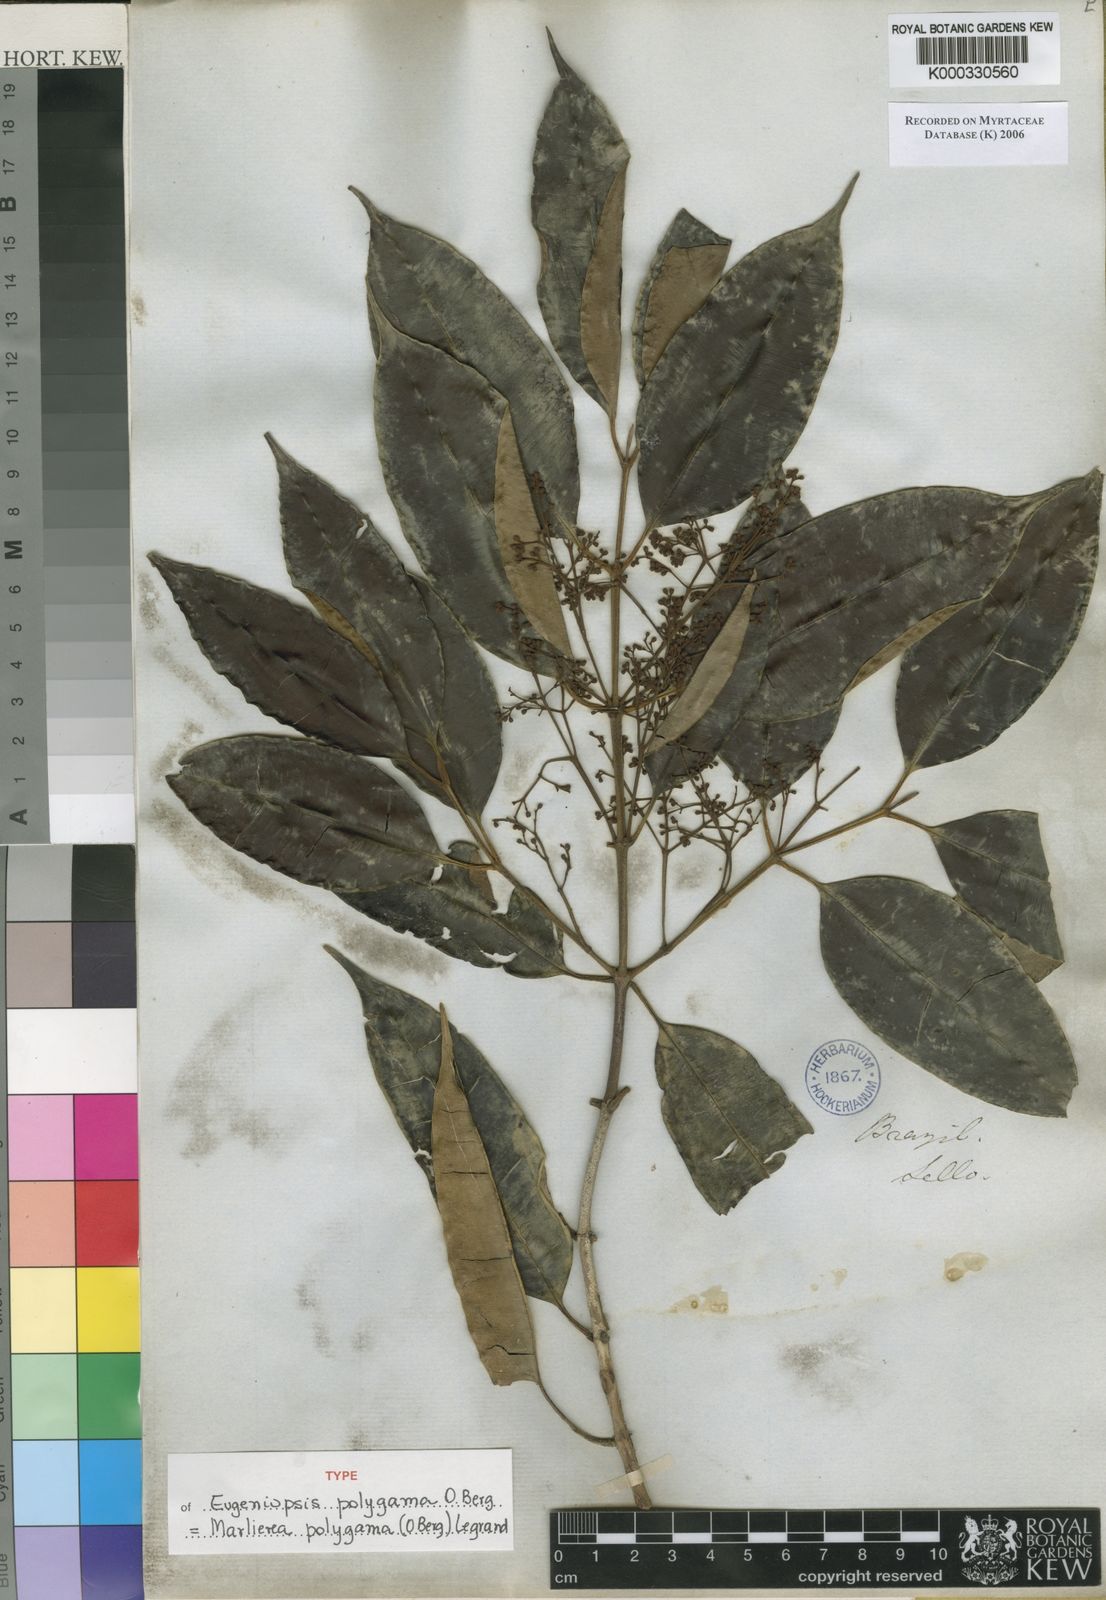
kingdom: Plantae
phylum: Tracheophyta
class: Magnoliopsida
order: Myrtales
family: Myrtaceae
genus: Myrcia
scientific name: Myrcia polygama
